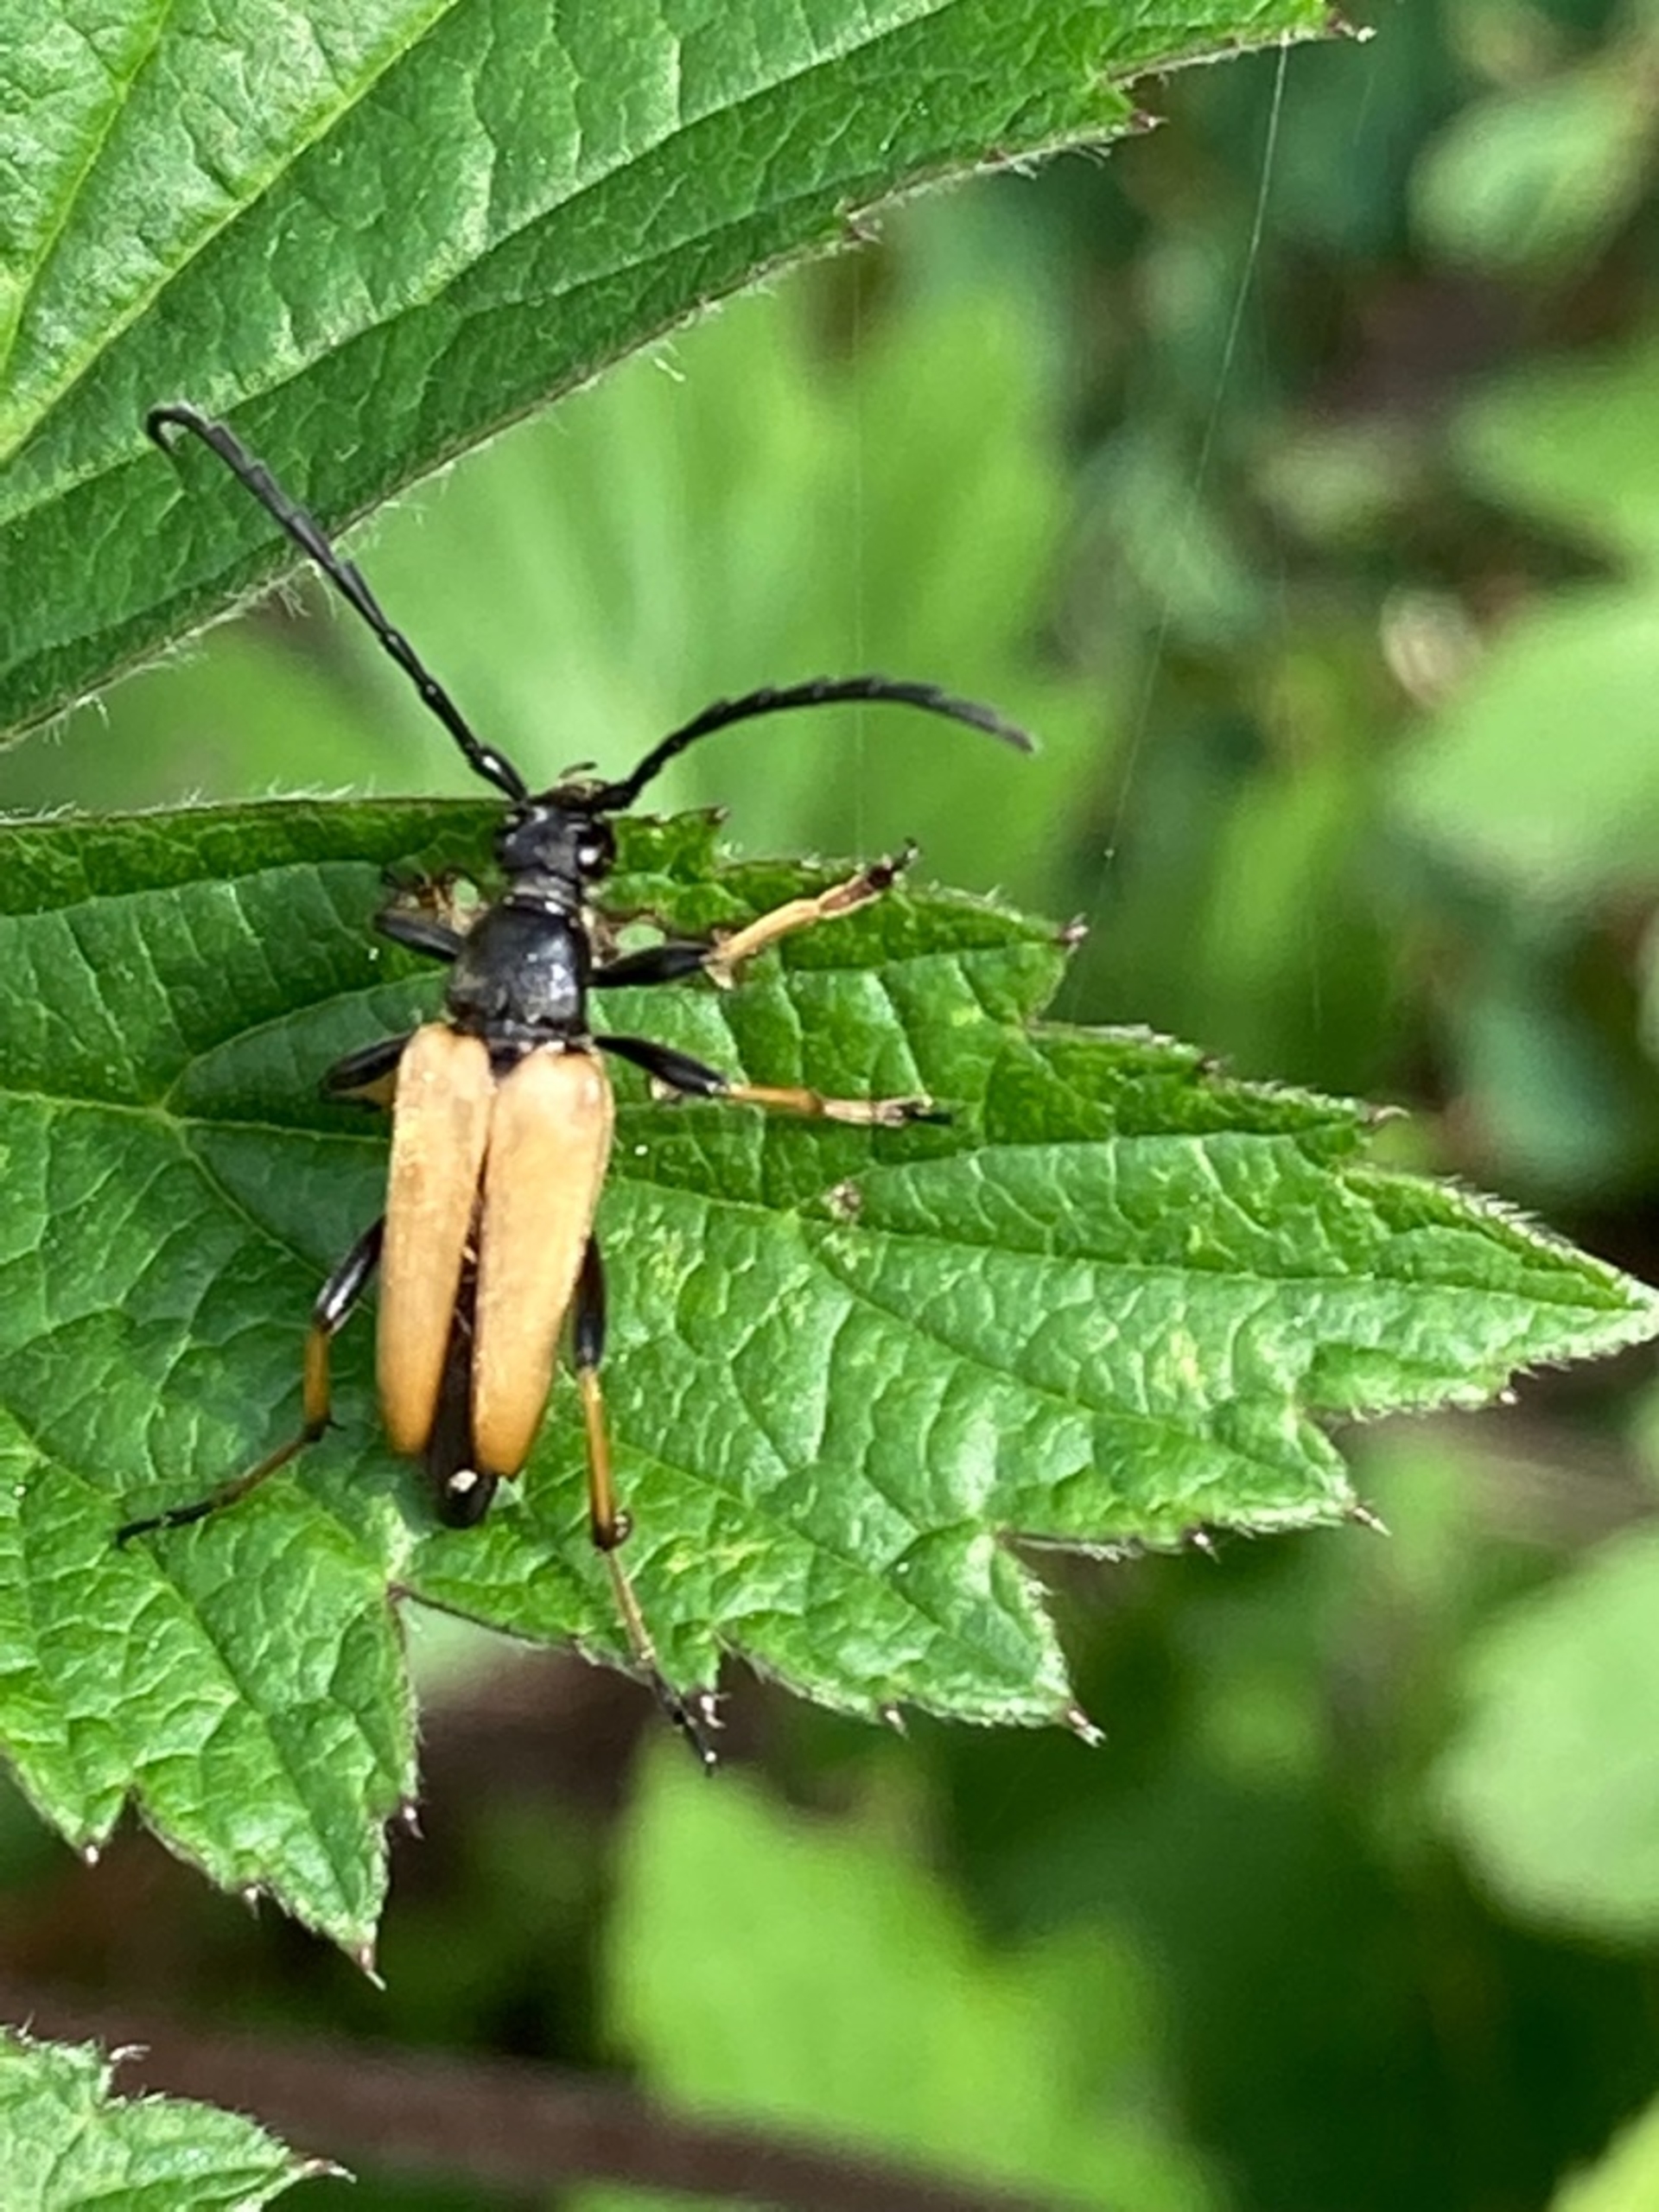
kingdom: Animalia
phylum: Arthropoda
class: Insecta
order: Coleoptera
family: Cerambycidae
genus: Stictoleptura
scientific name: Stictoleptura rubra
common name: Rød blomsterbuk
